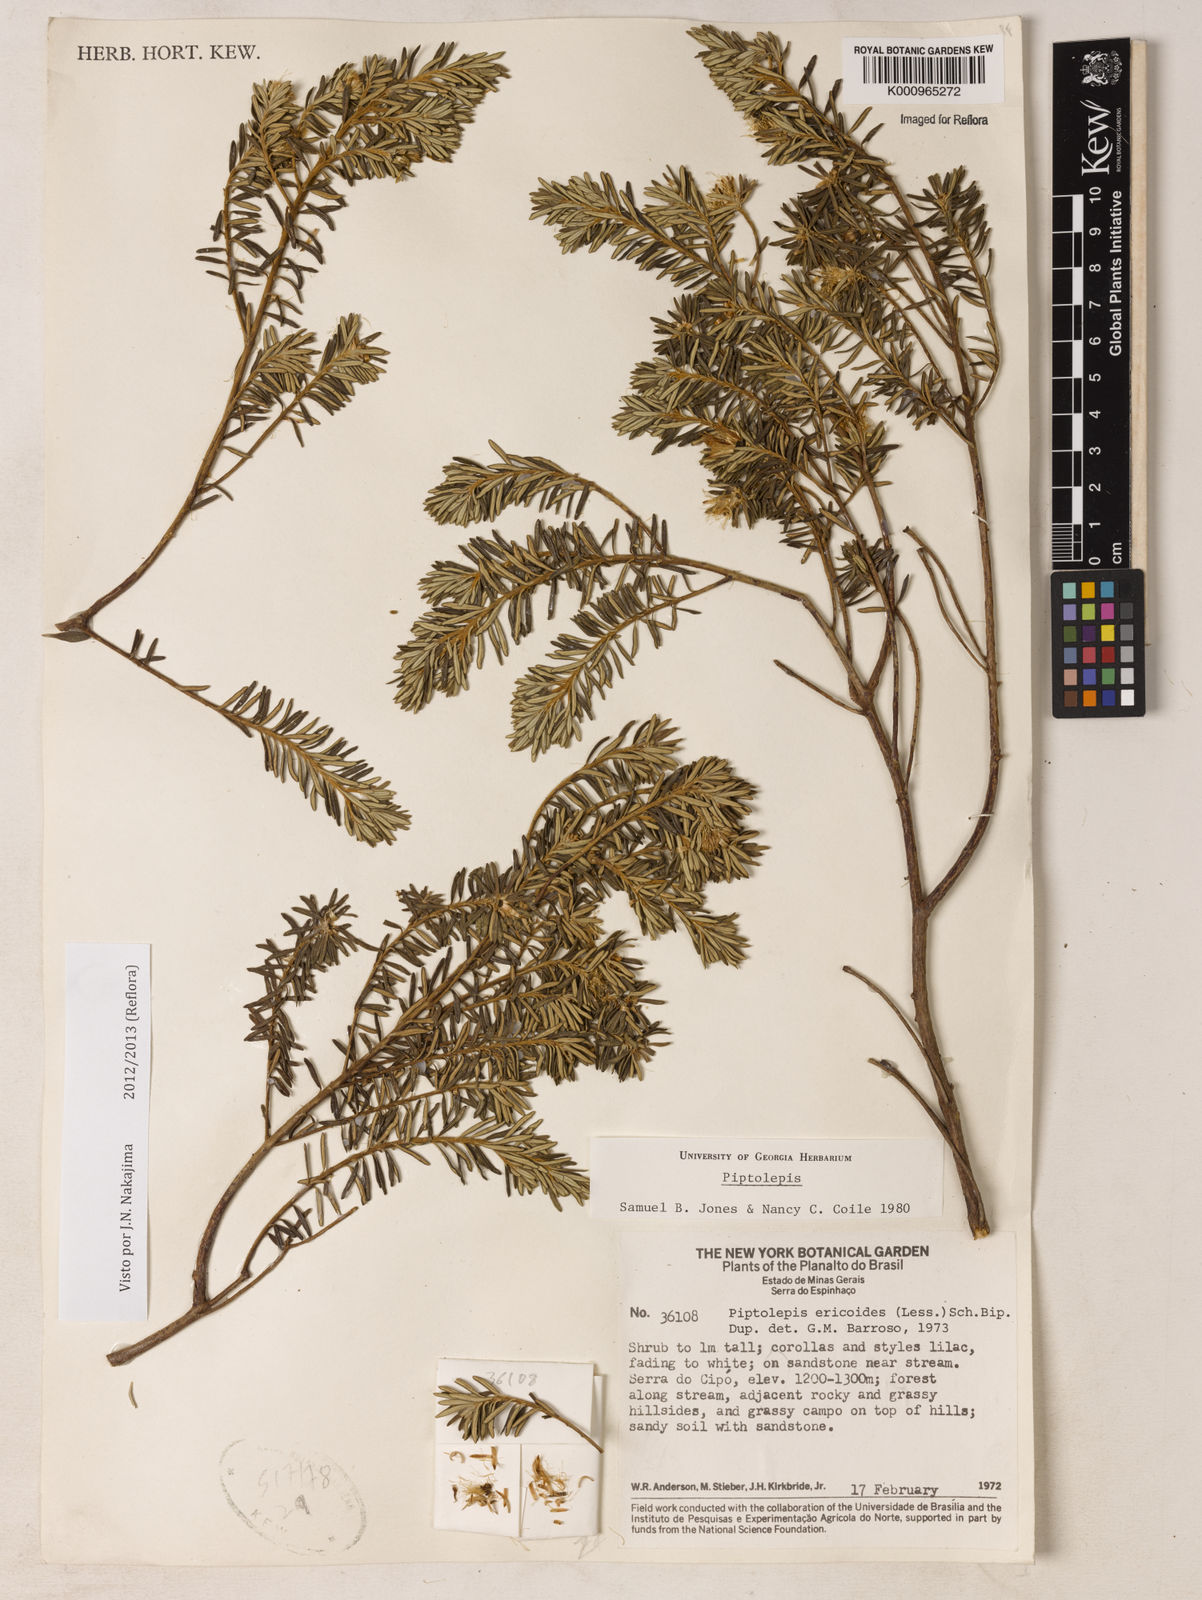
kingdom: Plantae
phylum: Tracheophyta
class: Magnoliopsida
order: Asterales
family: Asteraceae
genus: Piptolepis
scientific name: Piptolepis ericoides
